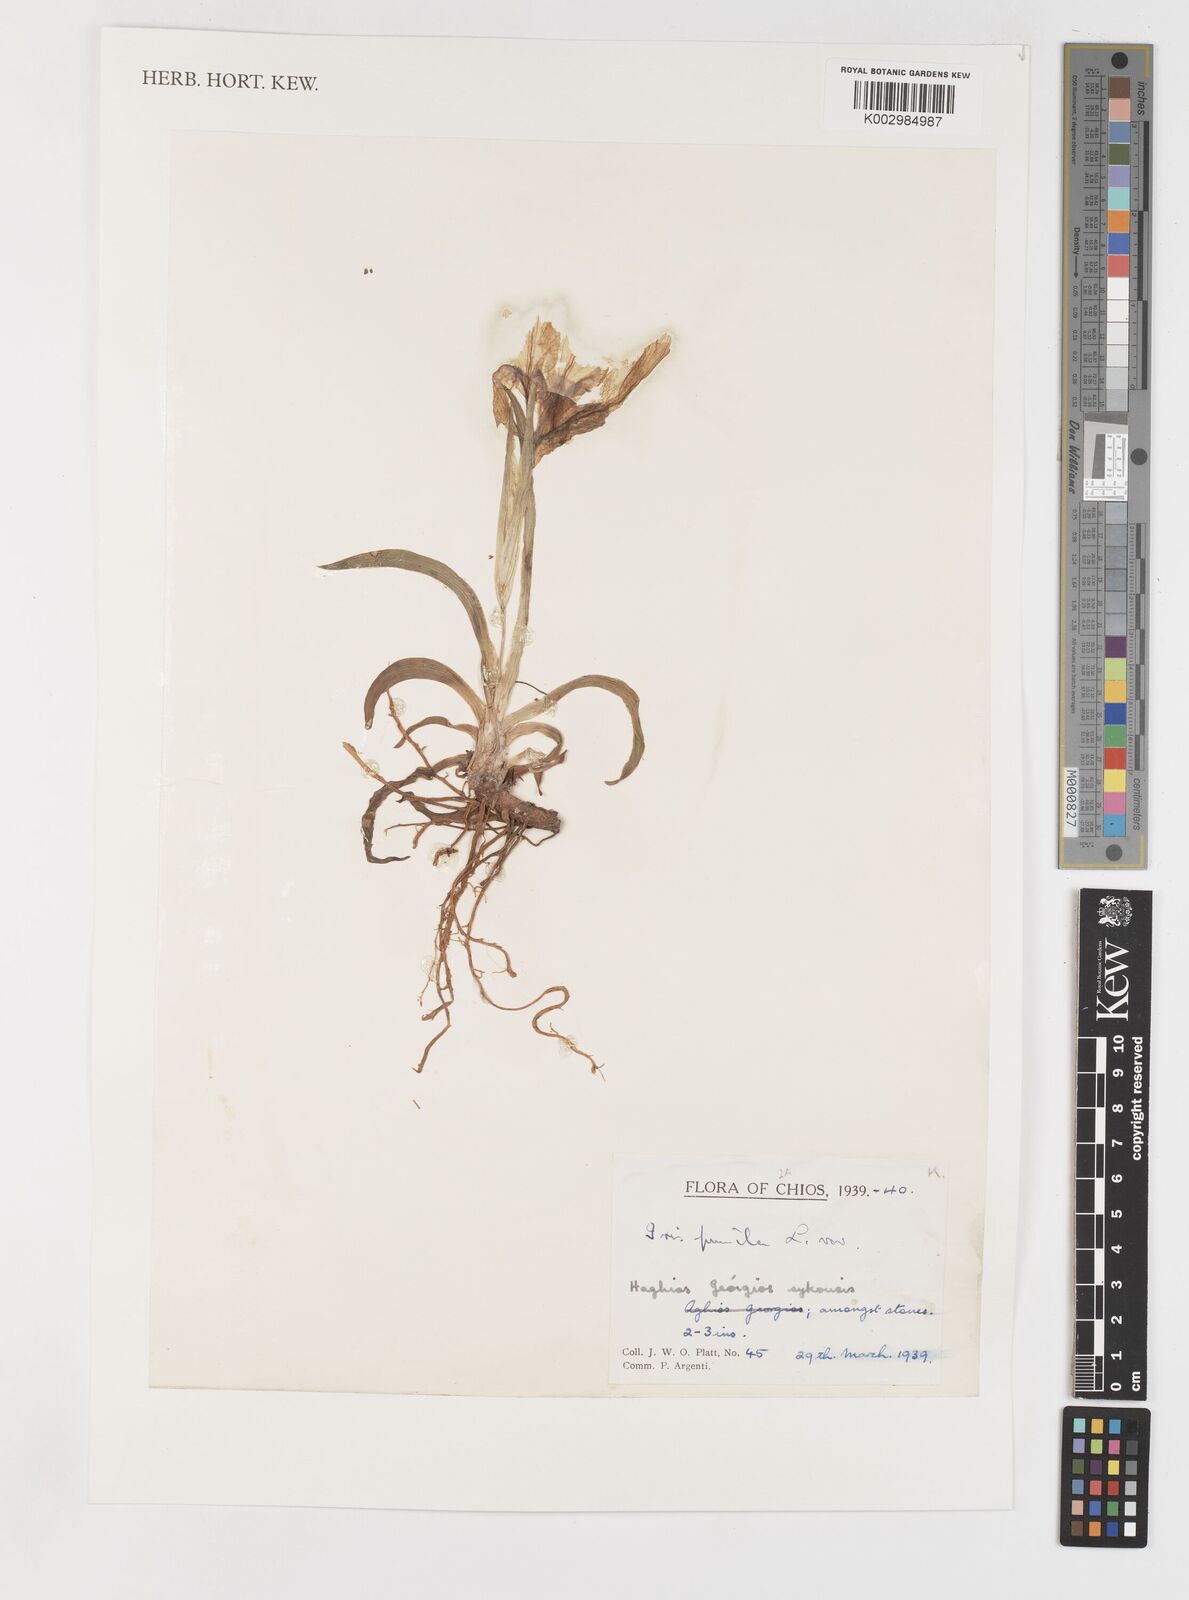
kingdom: Plantae
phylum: Tracheophyta
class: Liliopsida
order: Asparagales
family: Iridaceae
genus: Iris
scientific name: Iris pumila
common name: Dwarf iris
